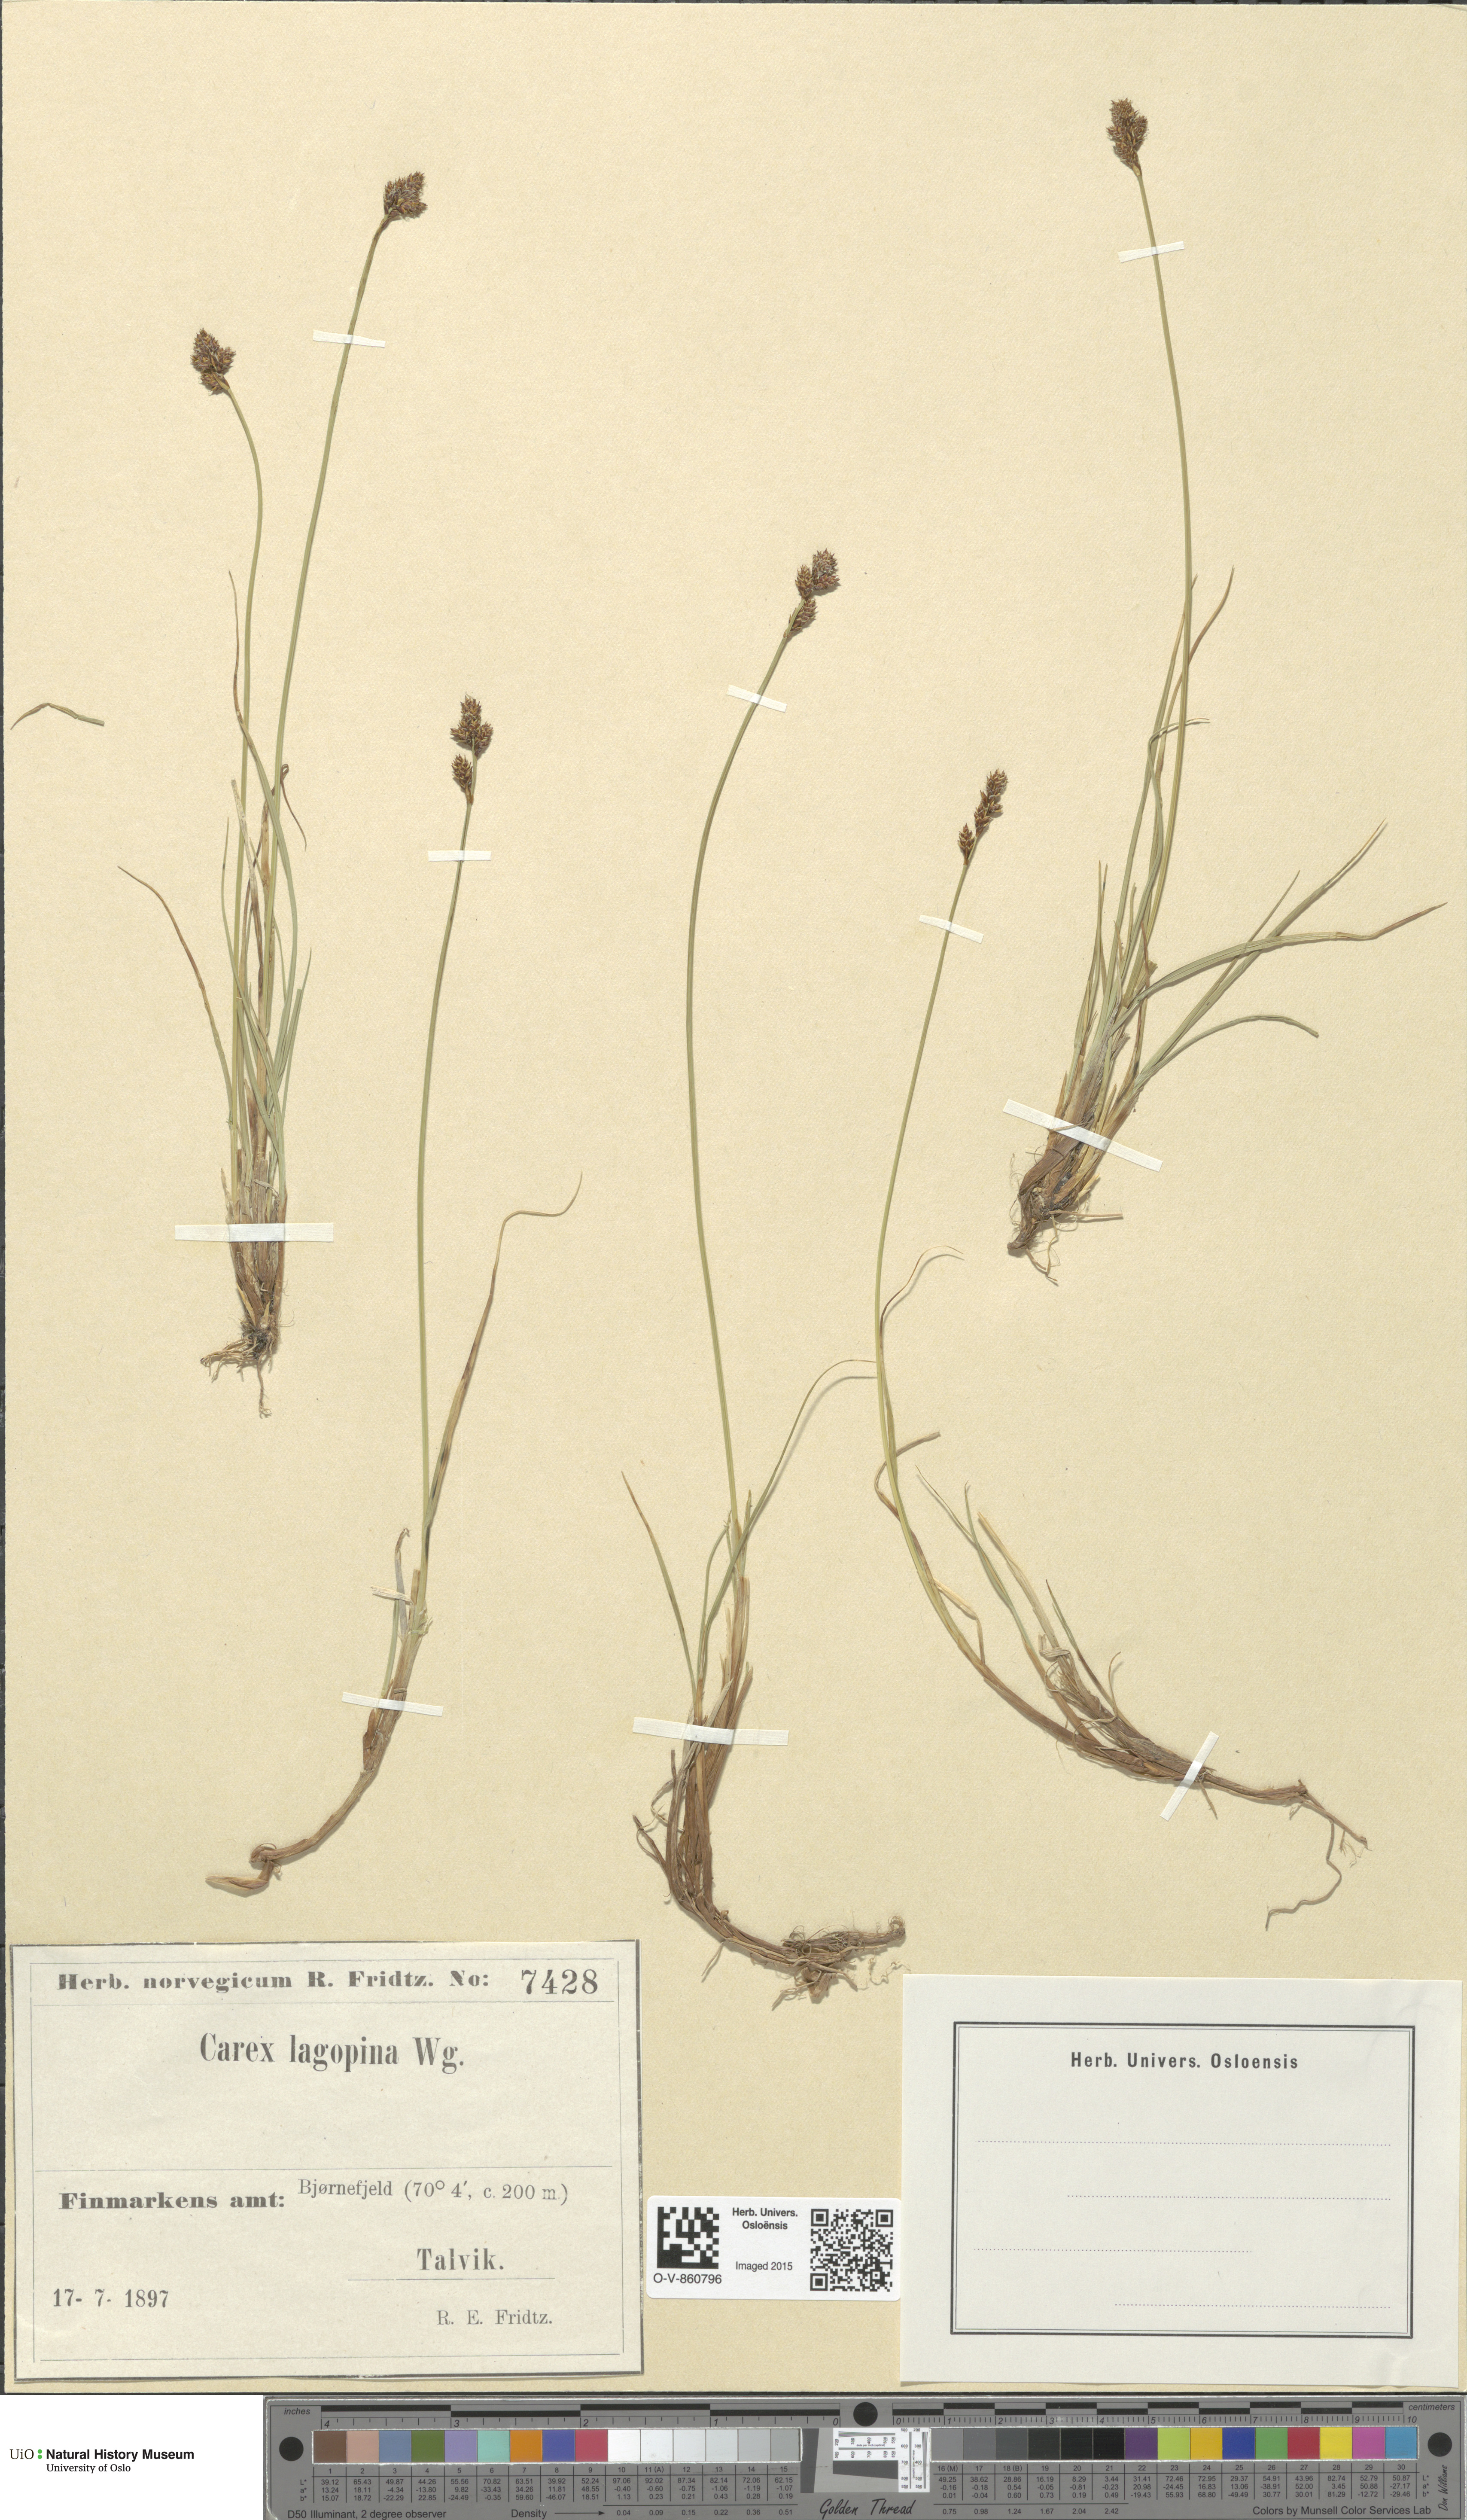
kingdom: Plantae
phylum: Tracheophyta
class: Liliopsida
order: Poales
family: Cyperaceae
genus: Carex
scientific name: Carex lachenalii
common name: Hare's-foot sedge
